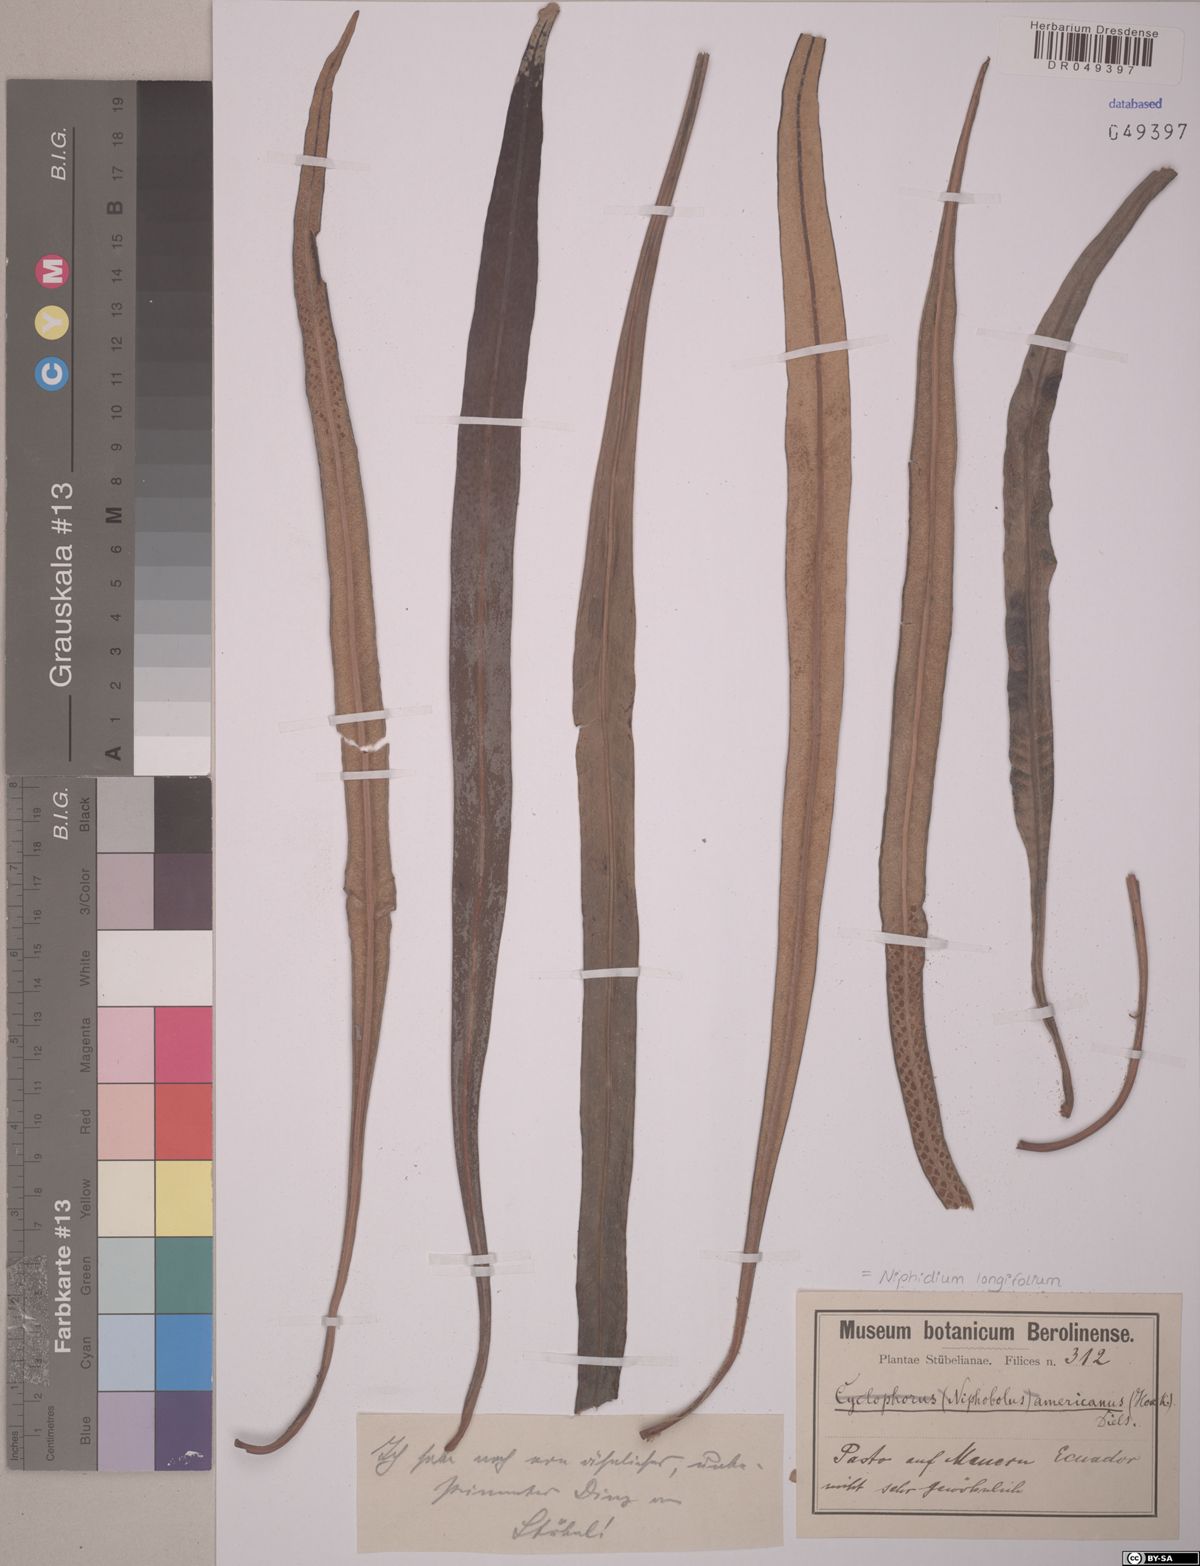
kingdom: Plantae
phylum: Tracheophyta
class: Polypodiopsida
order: Polypodiales
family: Polypodiaceae
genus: Niphidium
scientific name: Niphidium longifolium
